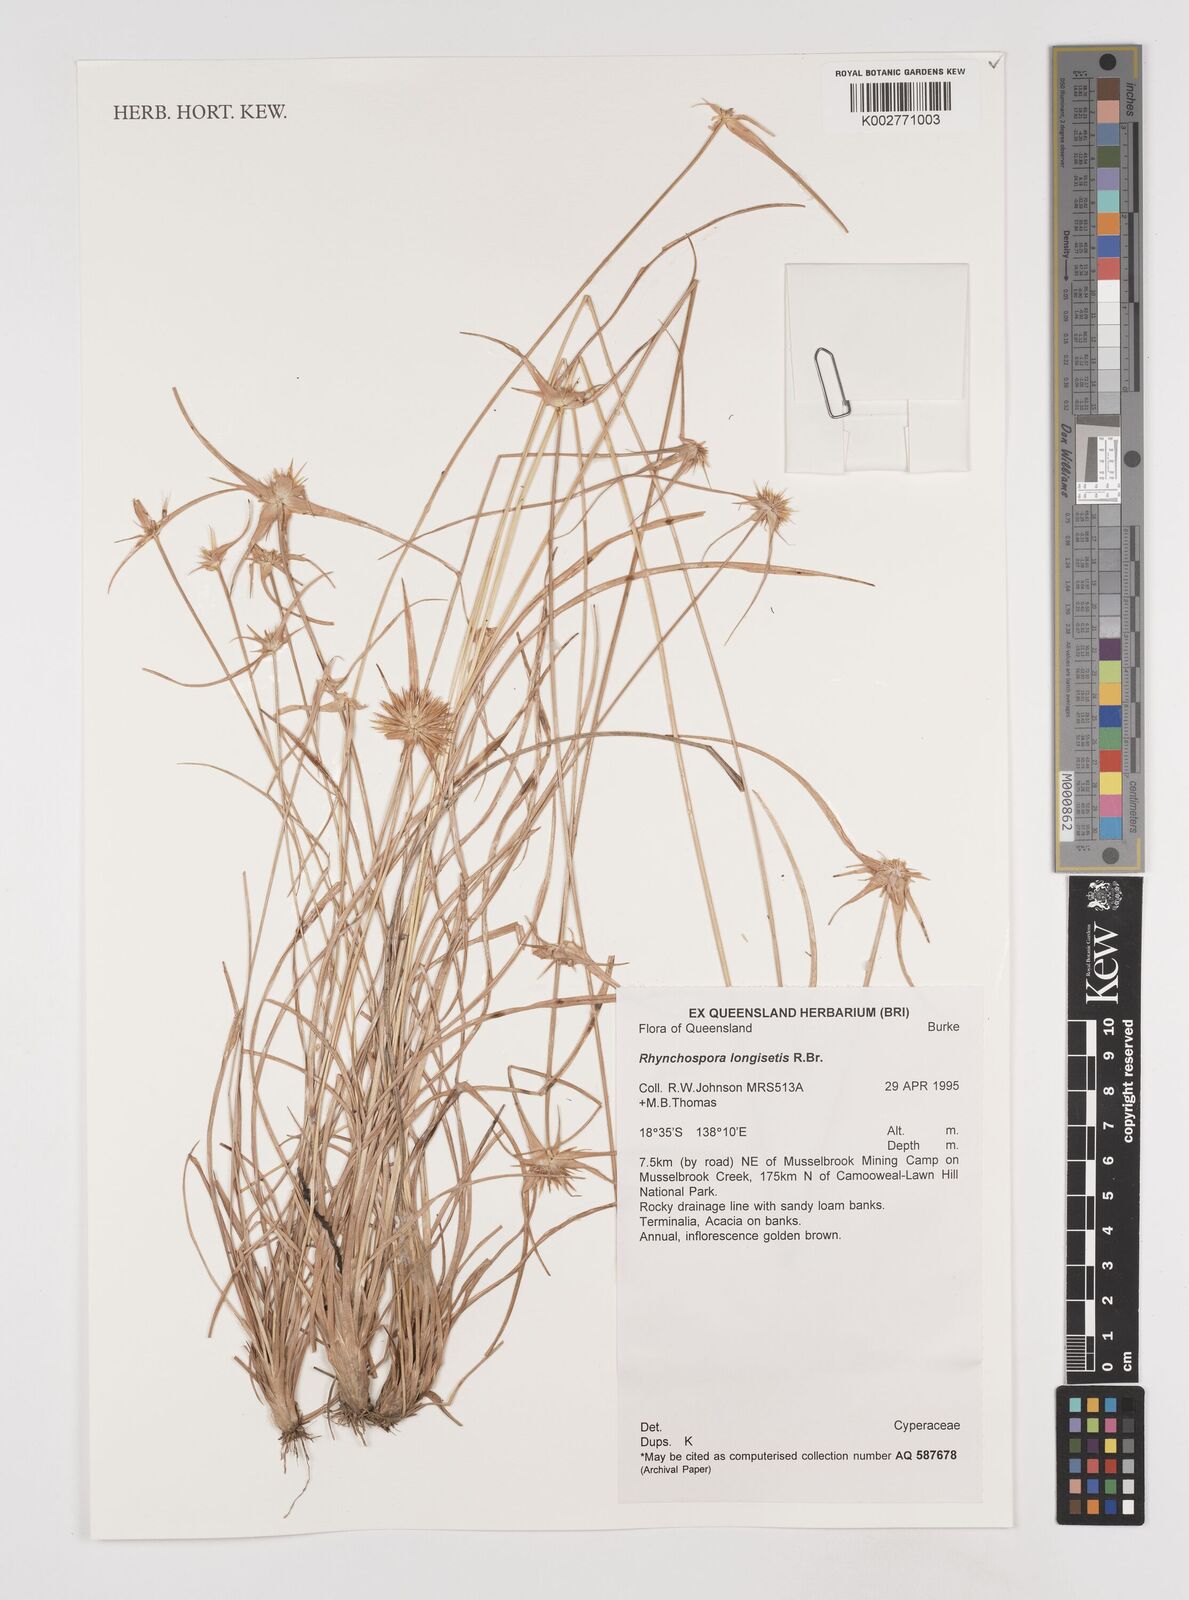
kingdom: Plantae
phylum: Tracheophyta
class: Liliopsida
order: Poales
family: Cyperaceae
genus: Rhynchospora
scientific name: Rhynchospora longisetis
